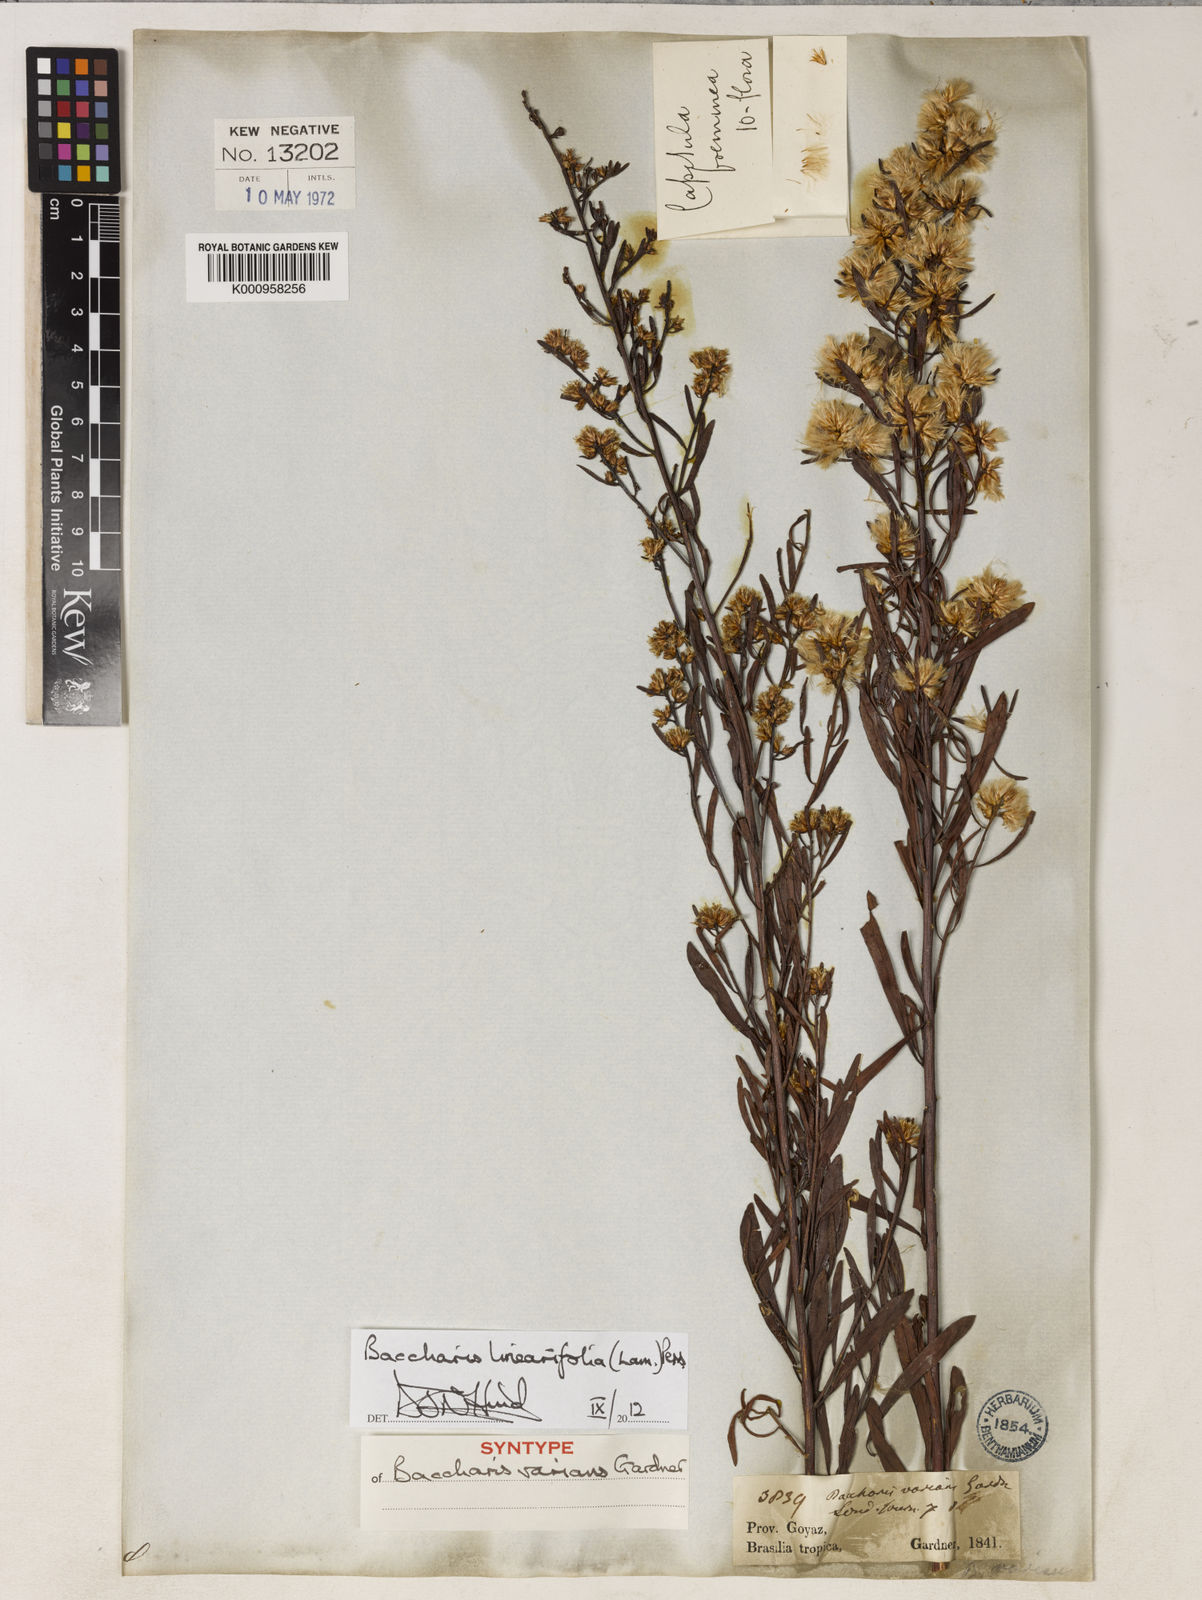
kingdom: Plantae
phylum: Tracheophyta
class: Magnoliopsida
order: Asterales
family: Asteraceae
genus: Baccharis
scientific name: Baccharis linearifolia
